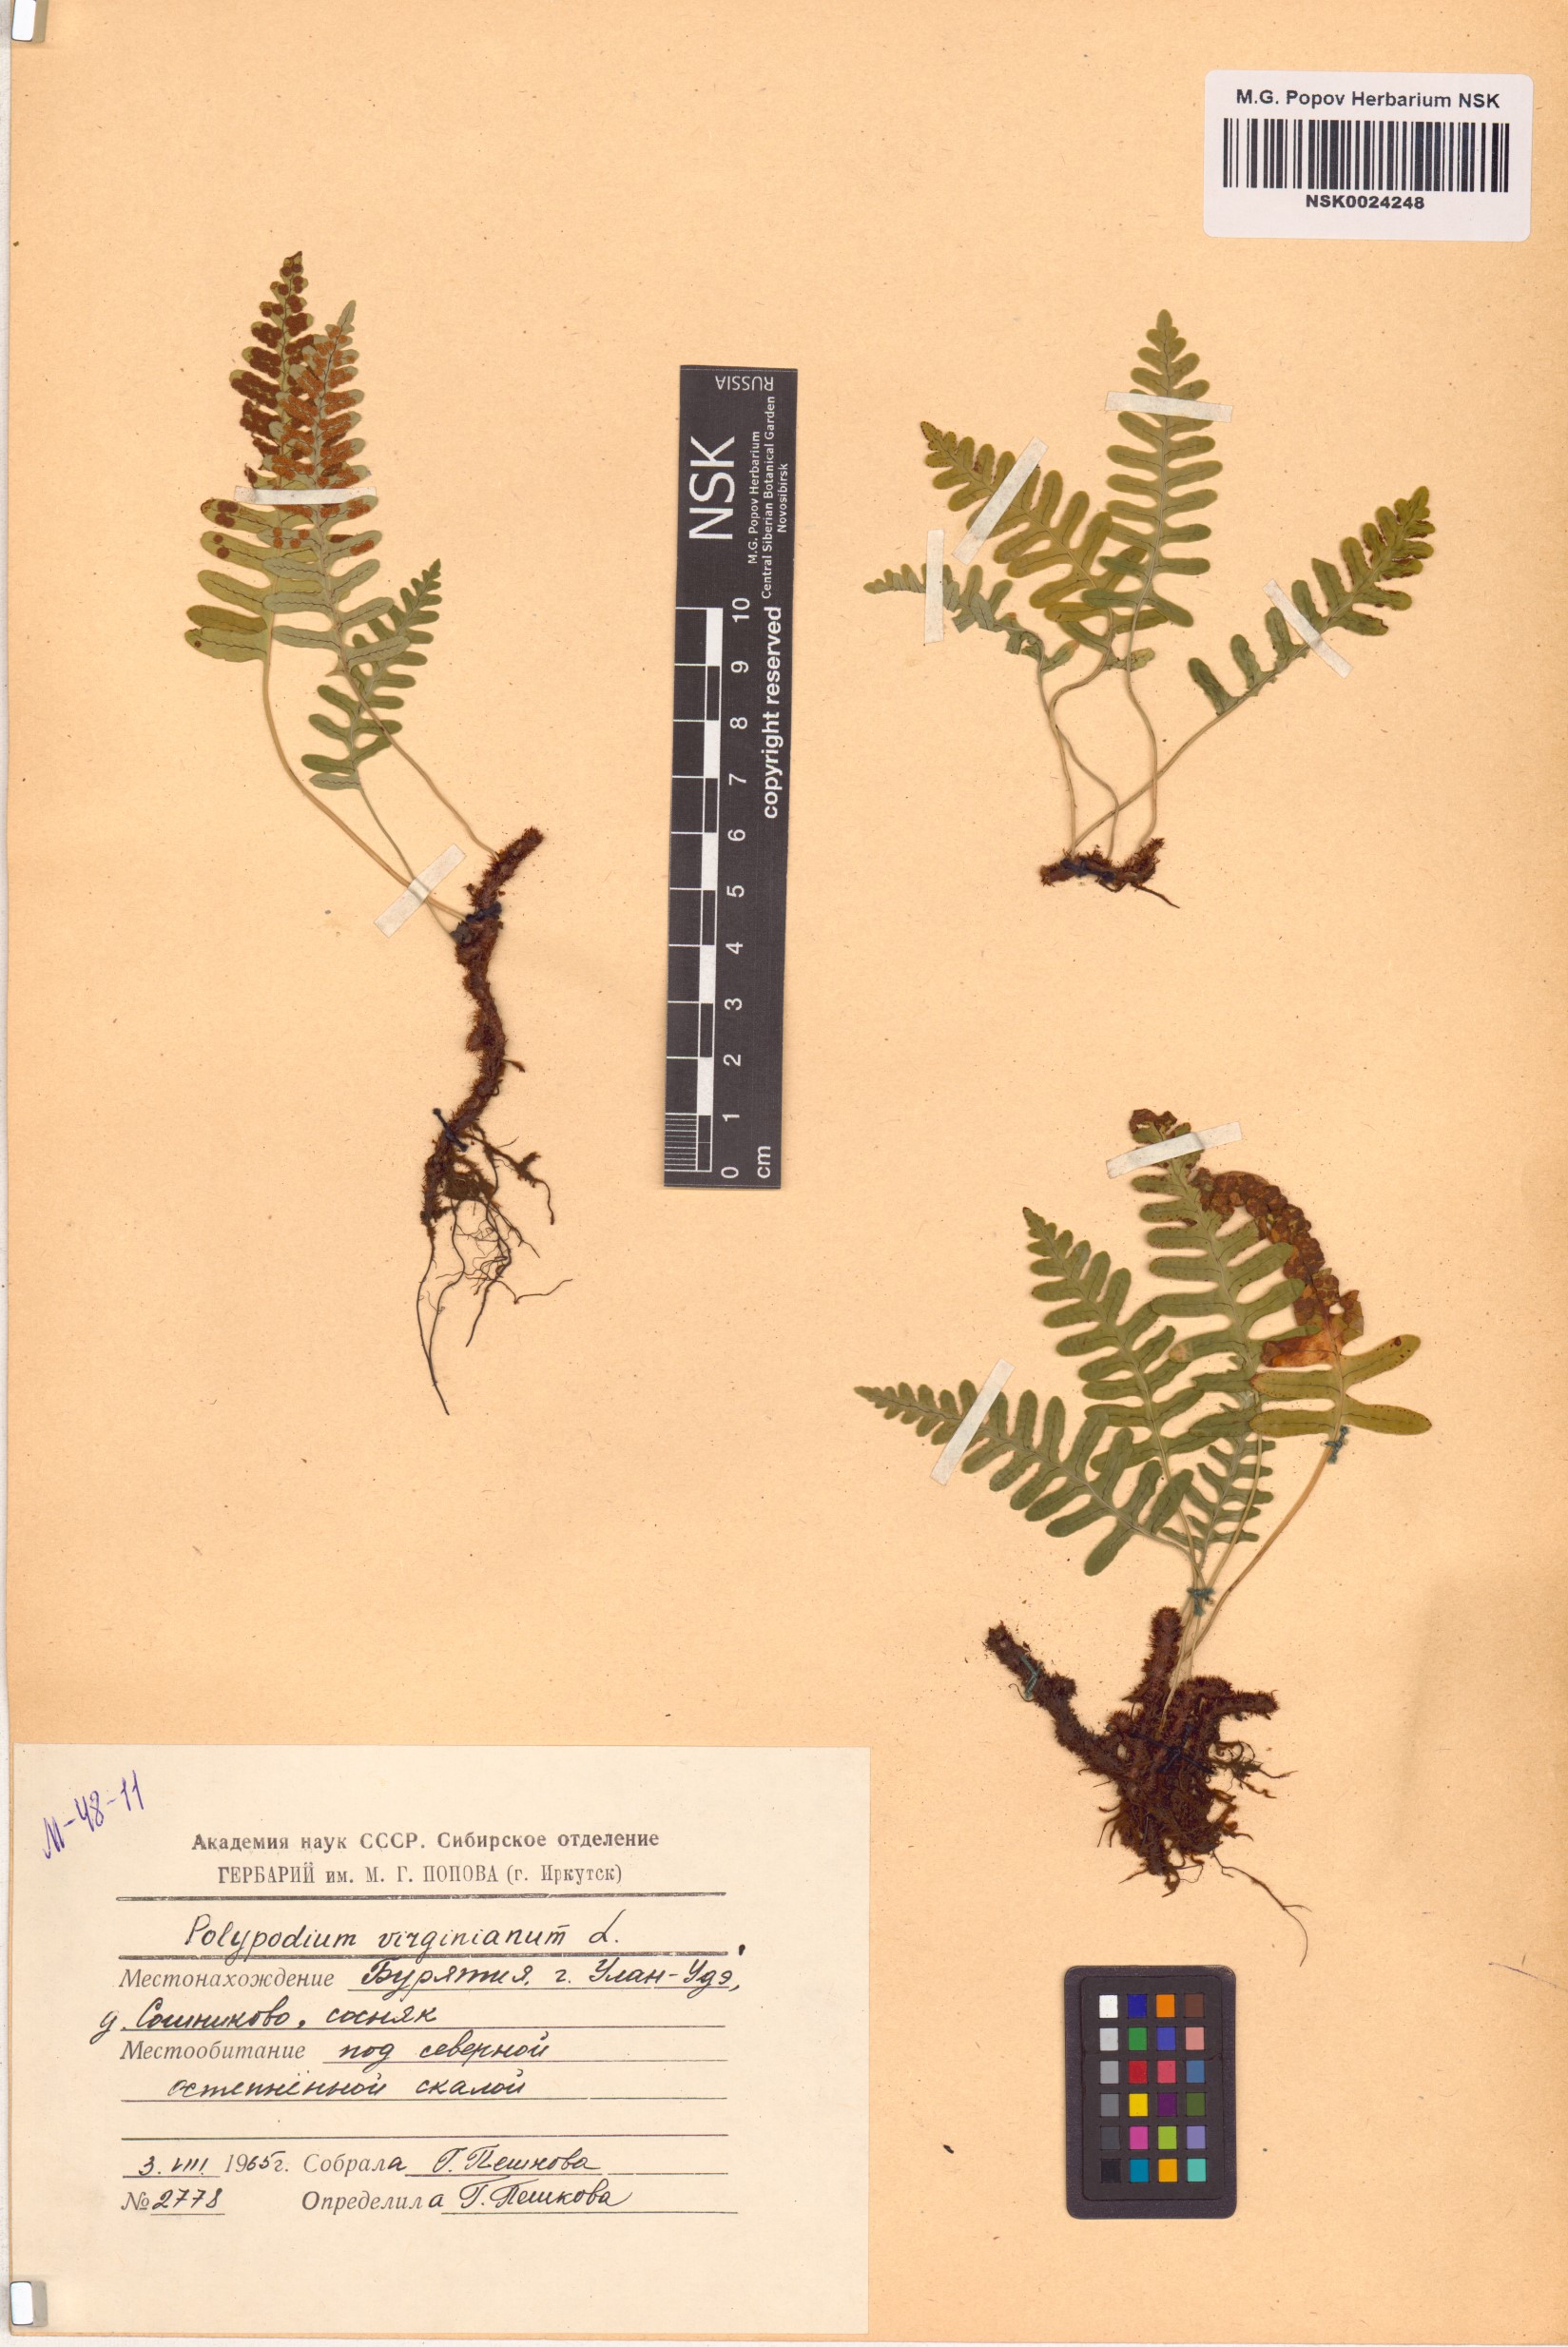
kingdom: Plantae
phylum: Tracheophyta
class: Polypodiopsida
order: Polypodiales
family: Polypodiaceae
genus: Polypodium
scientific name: Polypodium virginianum
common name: American wall fern
